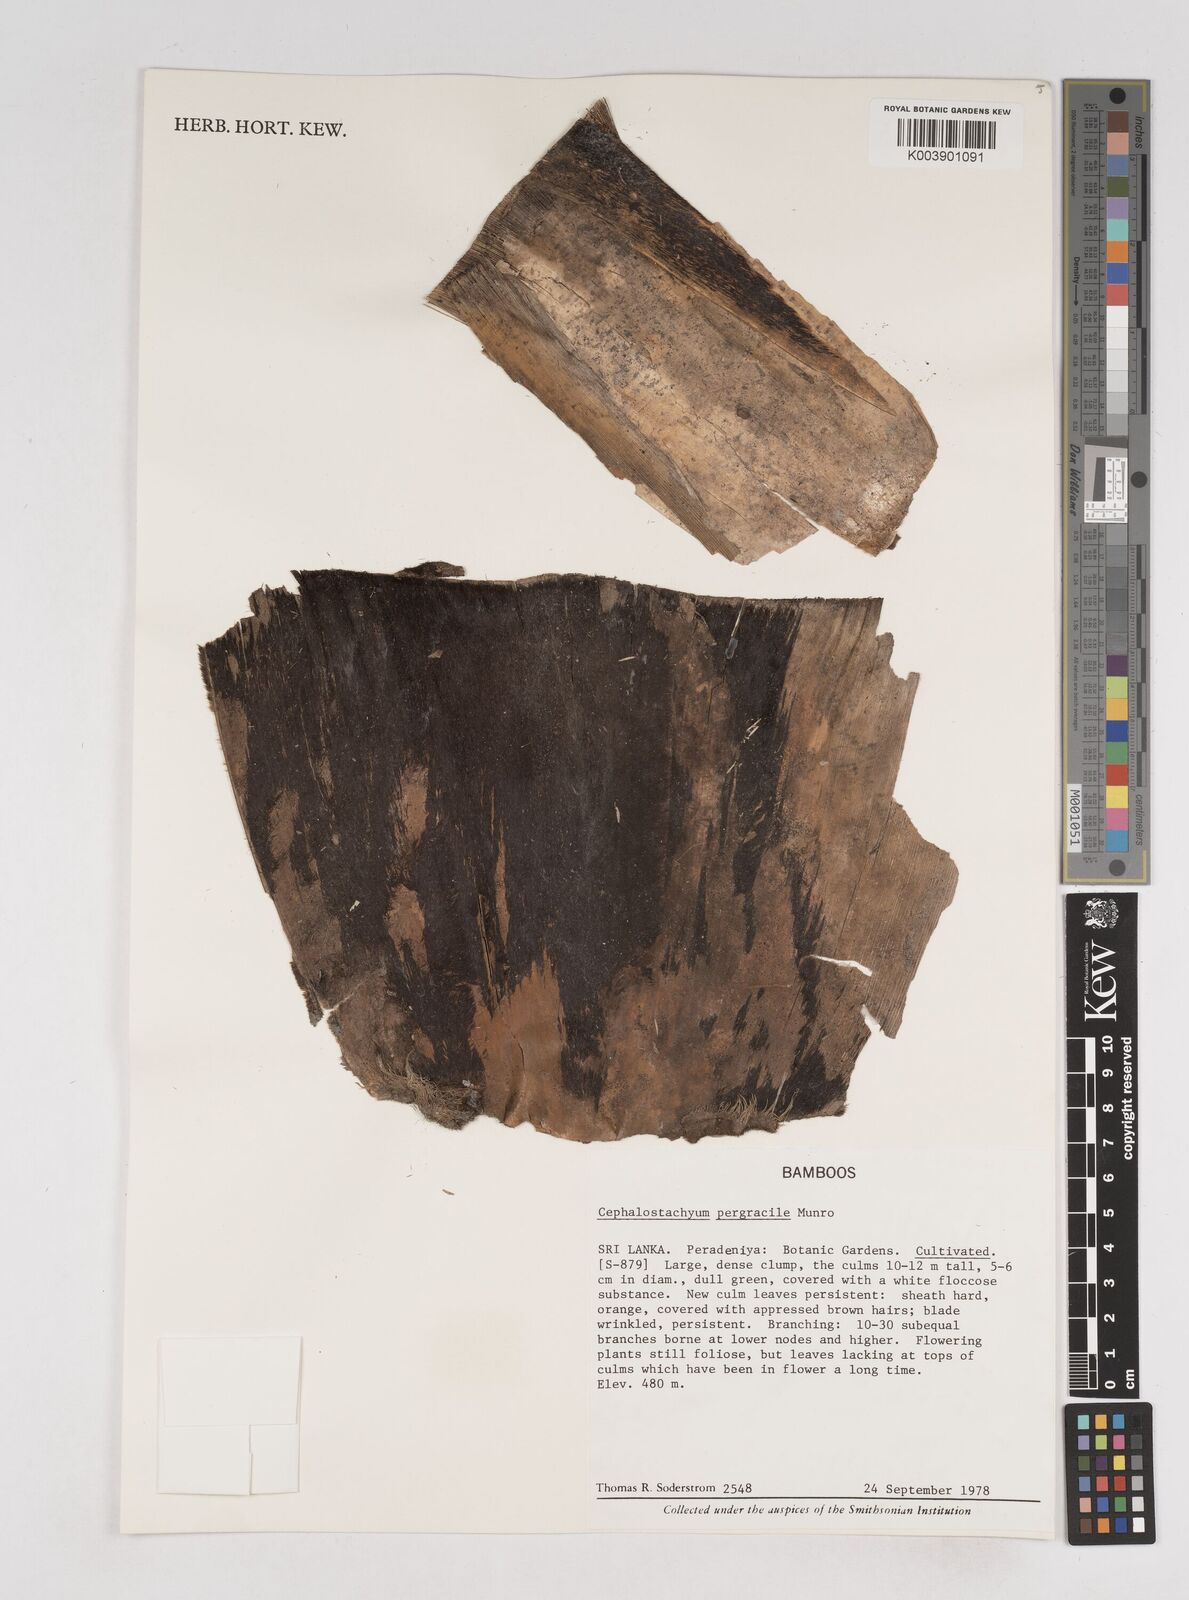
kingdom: Plantae
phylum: Tracheophyta
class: Liliopsida
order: Poales
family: Poaceae
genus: Cephalostachyum
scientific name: Cephalostachyum
